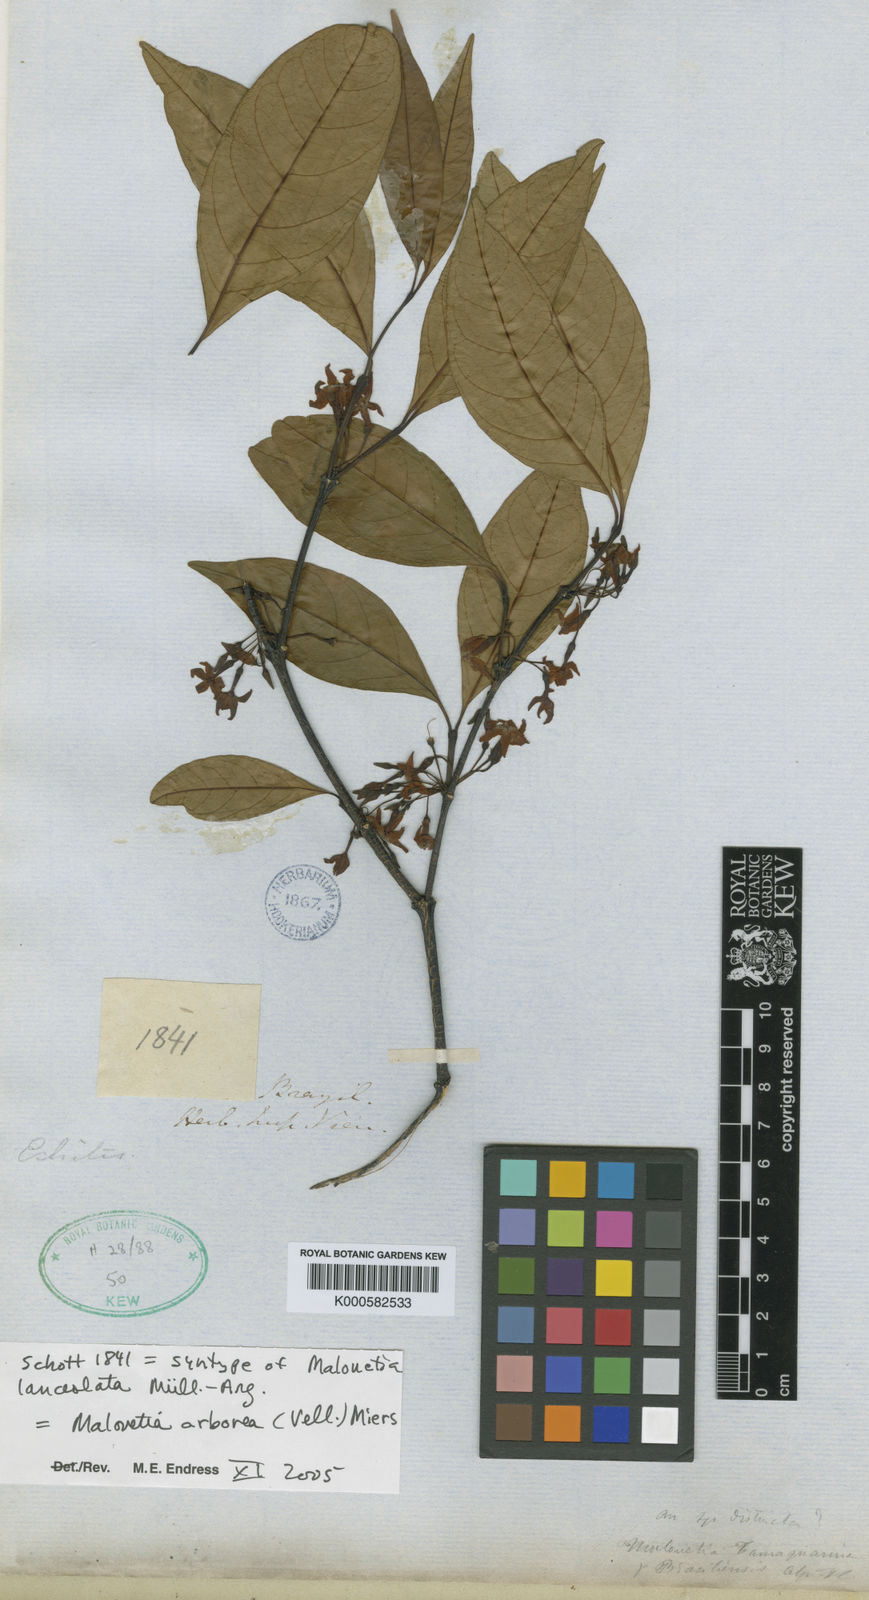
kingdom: Plantae
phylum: Tracheophyta
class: Magnoliopsida
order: Gentianales
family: Apocynaceae
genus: Malouetia
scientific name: Malouetia cestroides
